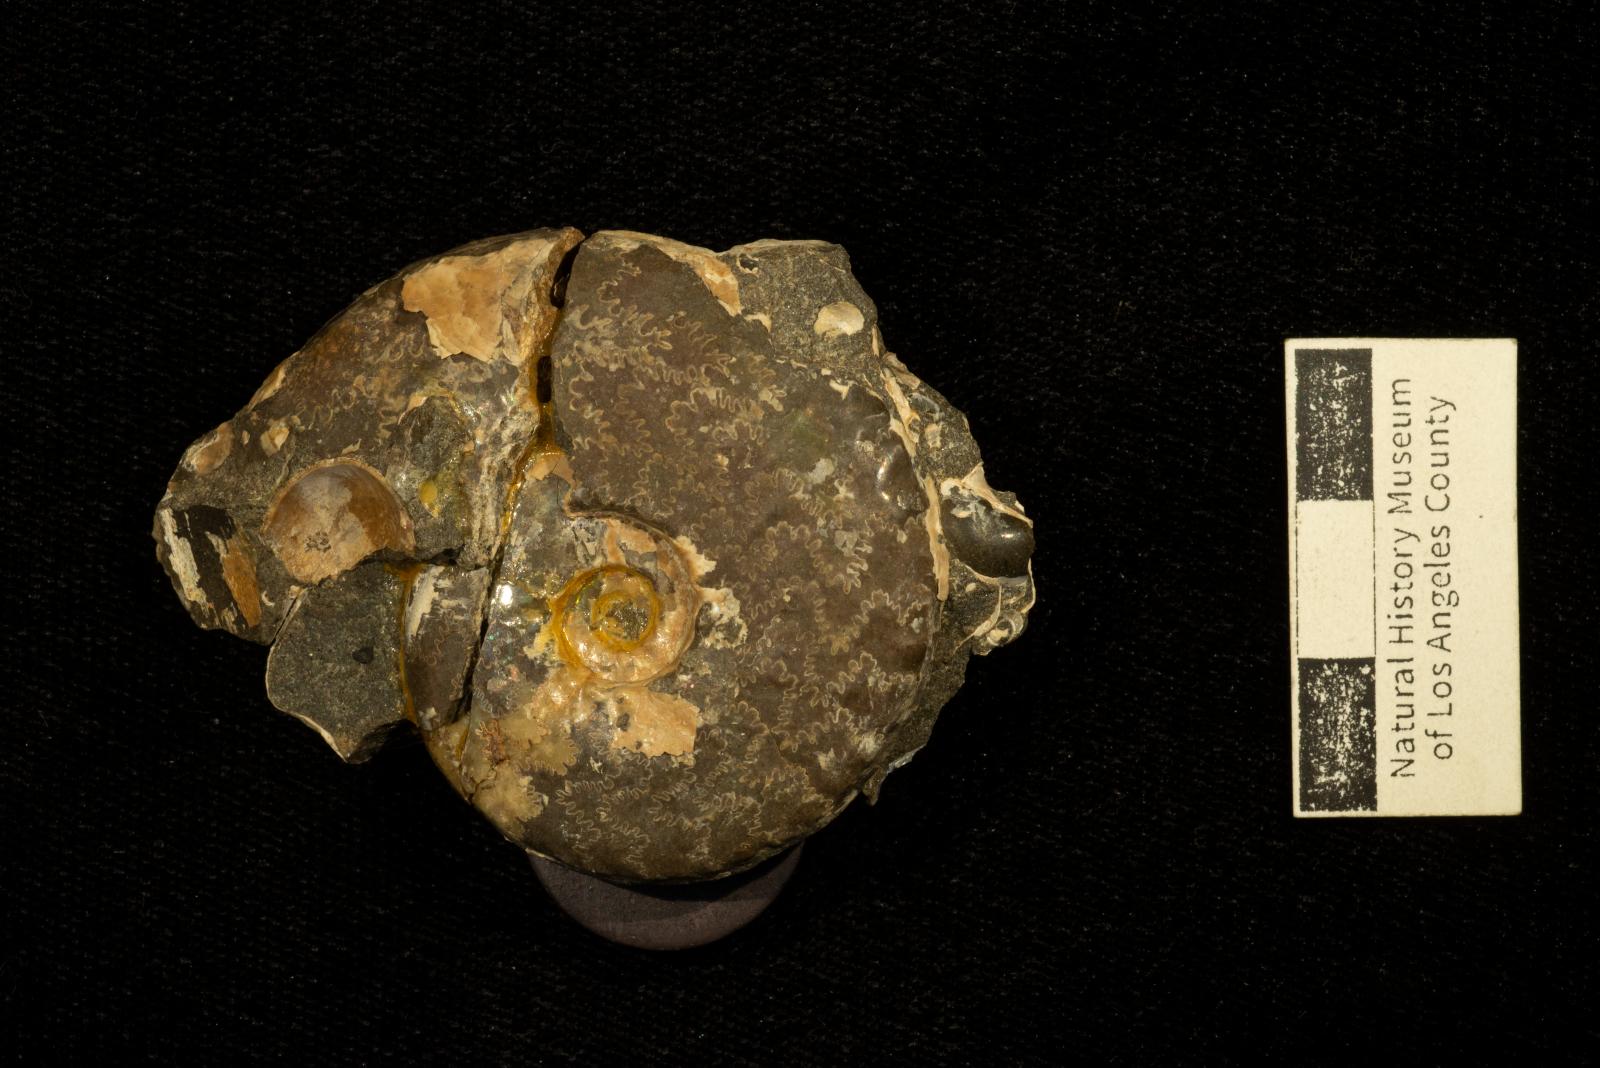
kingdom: Animalia
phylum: Mollusca
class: Cephalopoda
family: Collignoniceratidae
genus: Submortoniceras
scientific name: Submortoniceras
